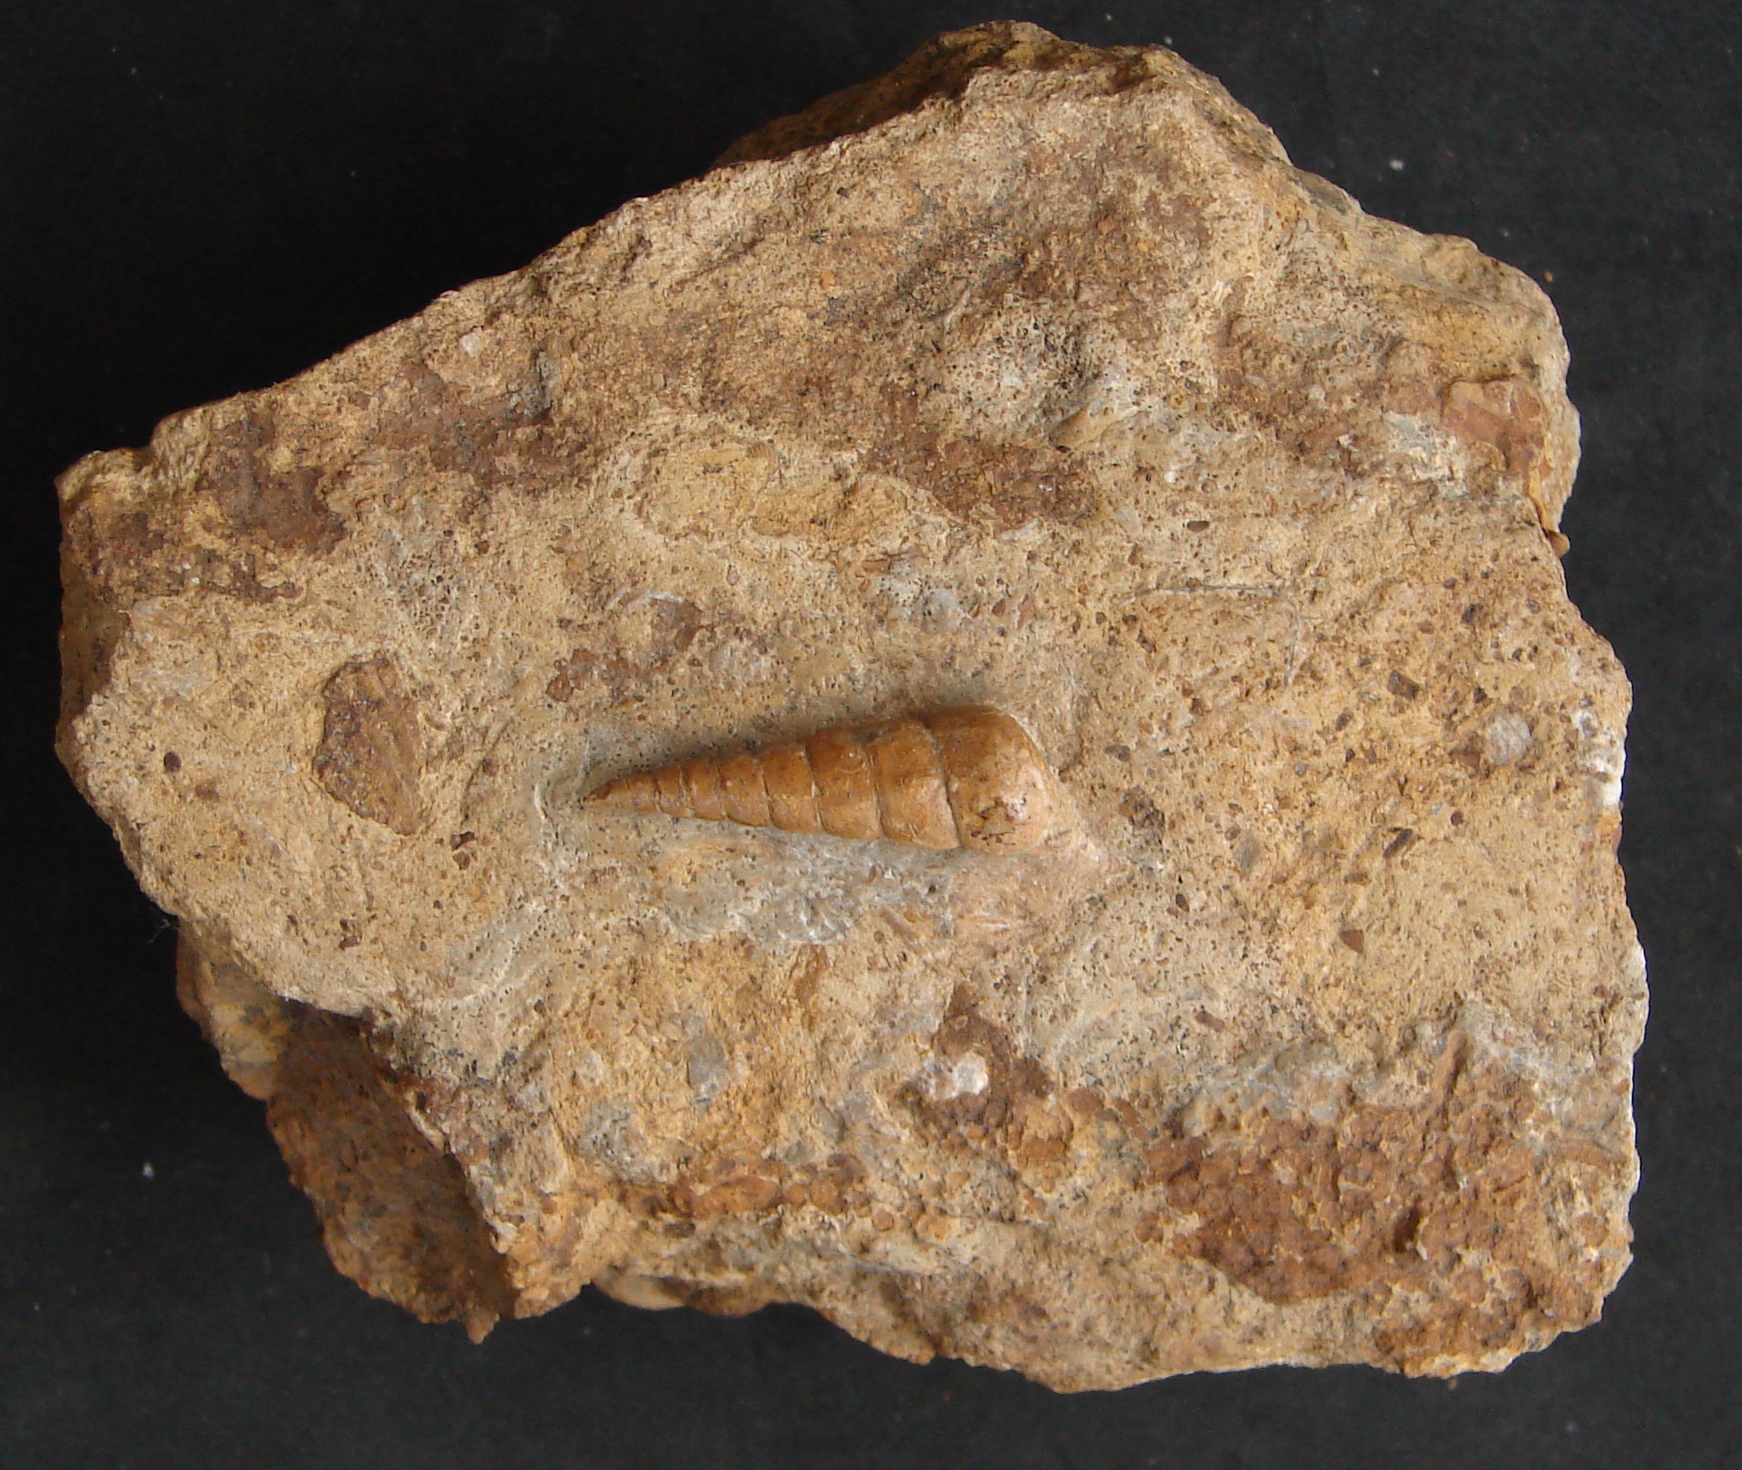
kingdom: Animalia
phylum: Mollusca
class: Gastropoda
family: Pseudomelaniidae
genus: Pseudomelania
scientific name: Pseudomelania
